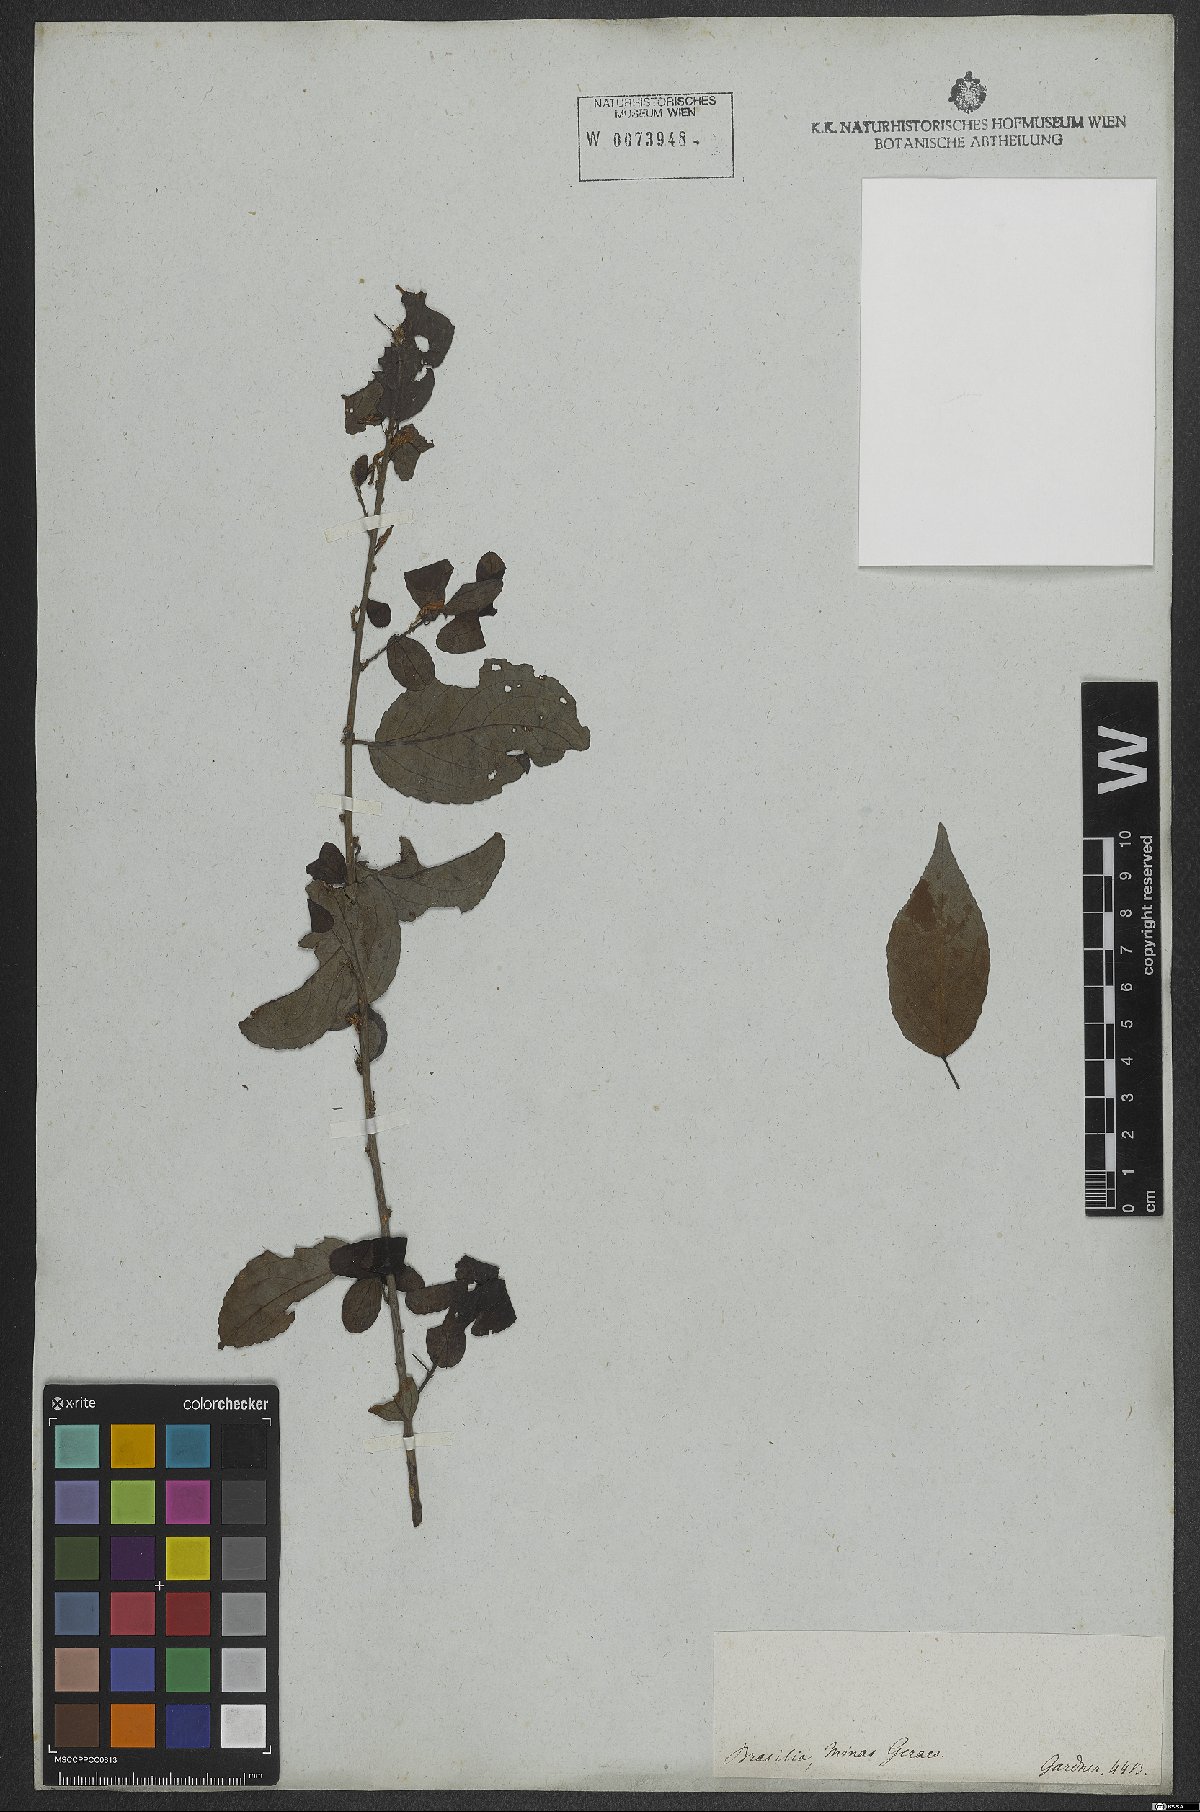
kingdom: Plantae
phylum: Tracheophyta
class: Magnoliopsida
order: Malpighiales
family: Violaceae
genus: Anchietea
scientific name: Anchietea pyrifolia
